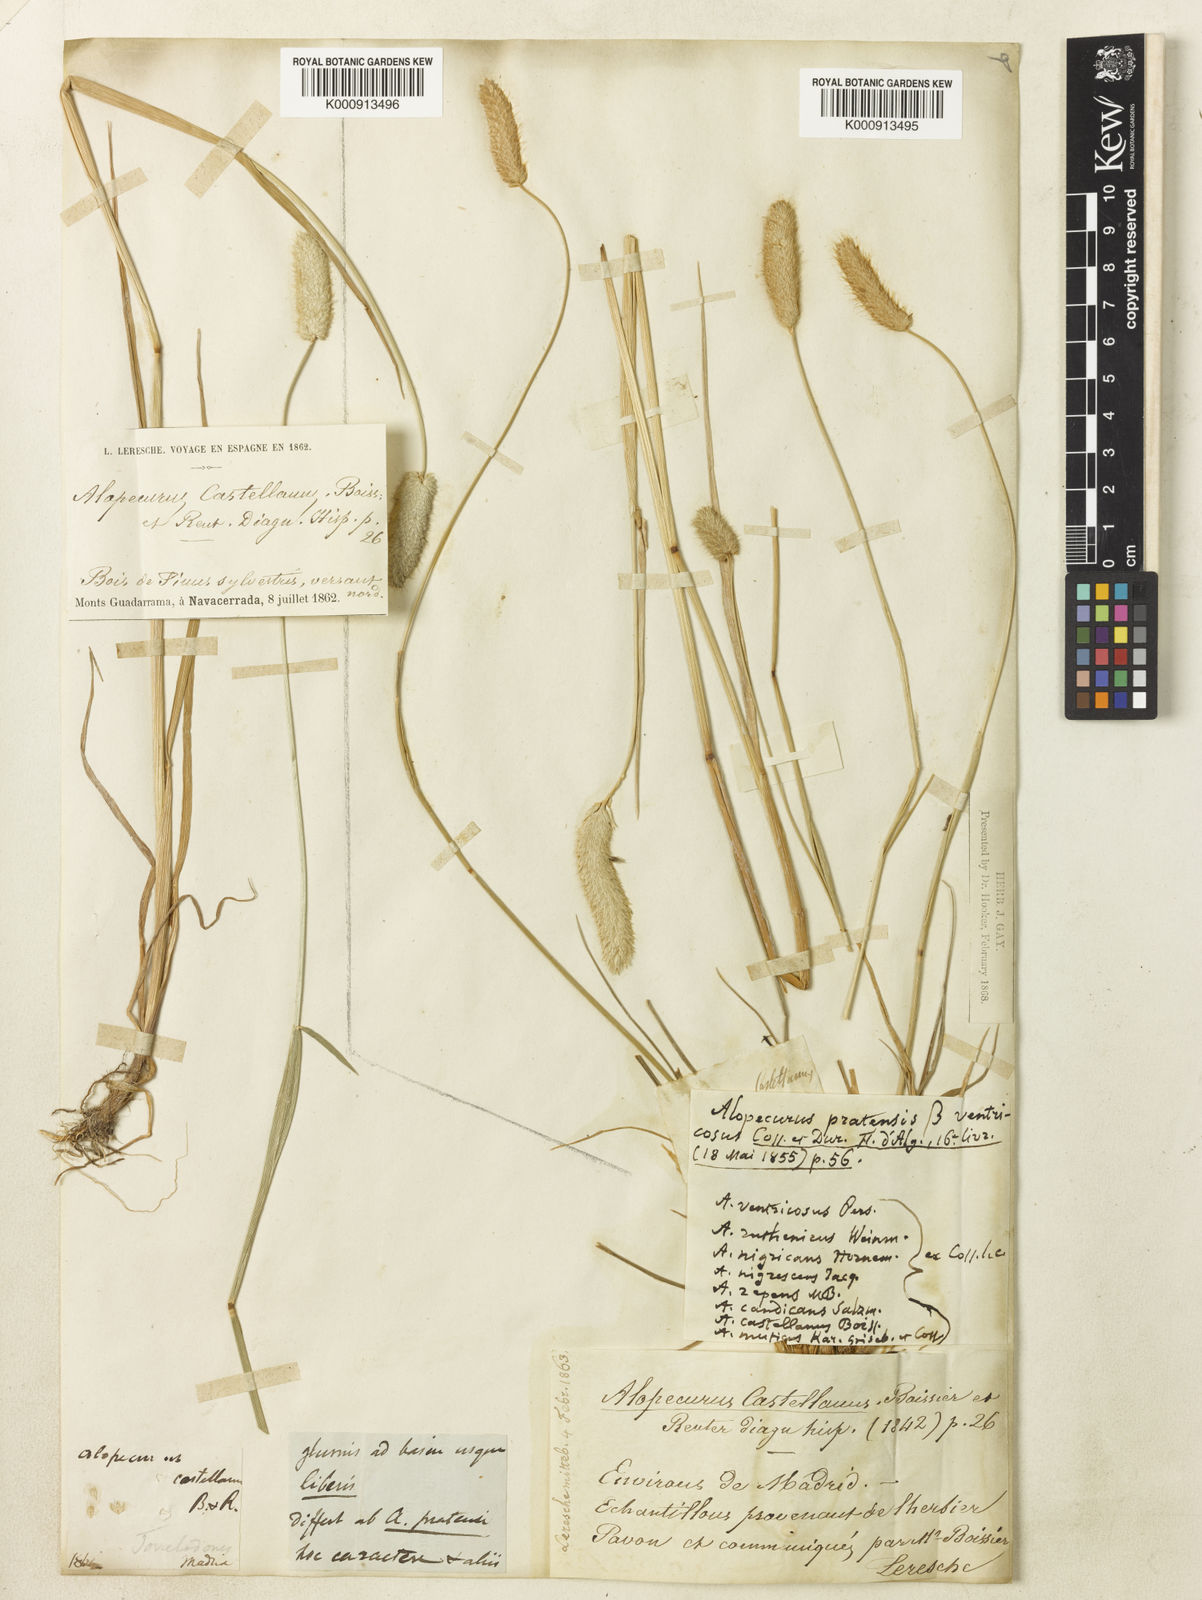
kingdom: Plantae
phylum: Tracheophyta
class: Liliopsida
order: Poales
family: Poaceae
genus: Alopecurus
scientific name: Alopecurus arundinaceus
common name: Creeping meadow foxtail
